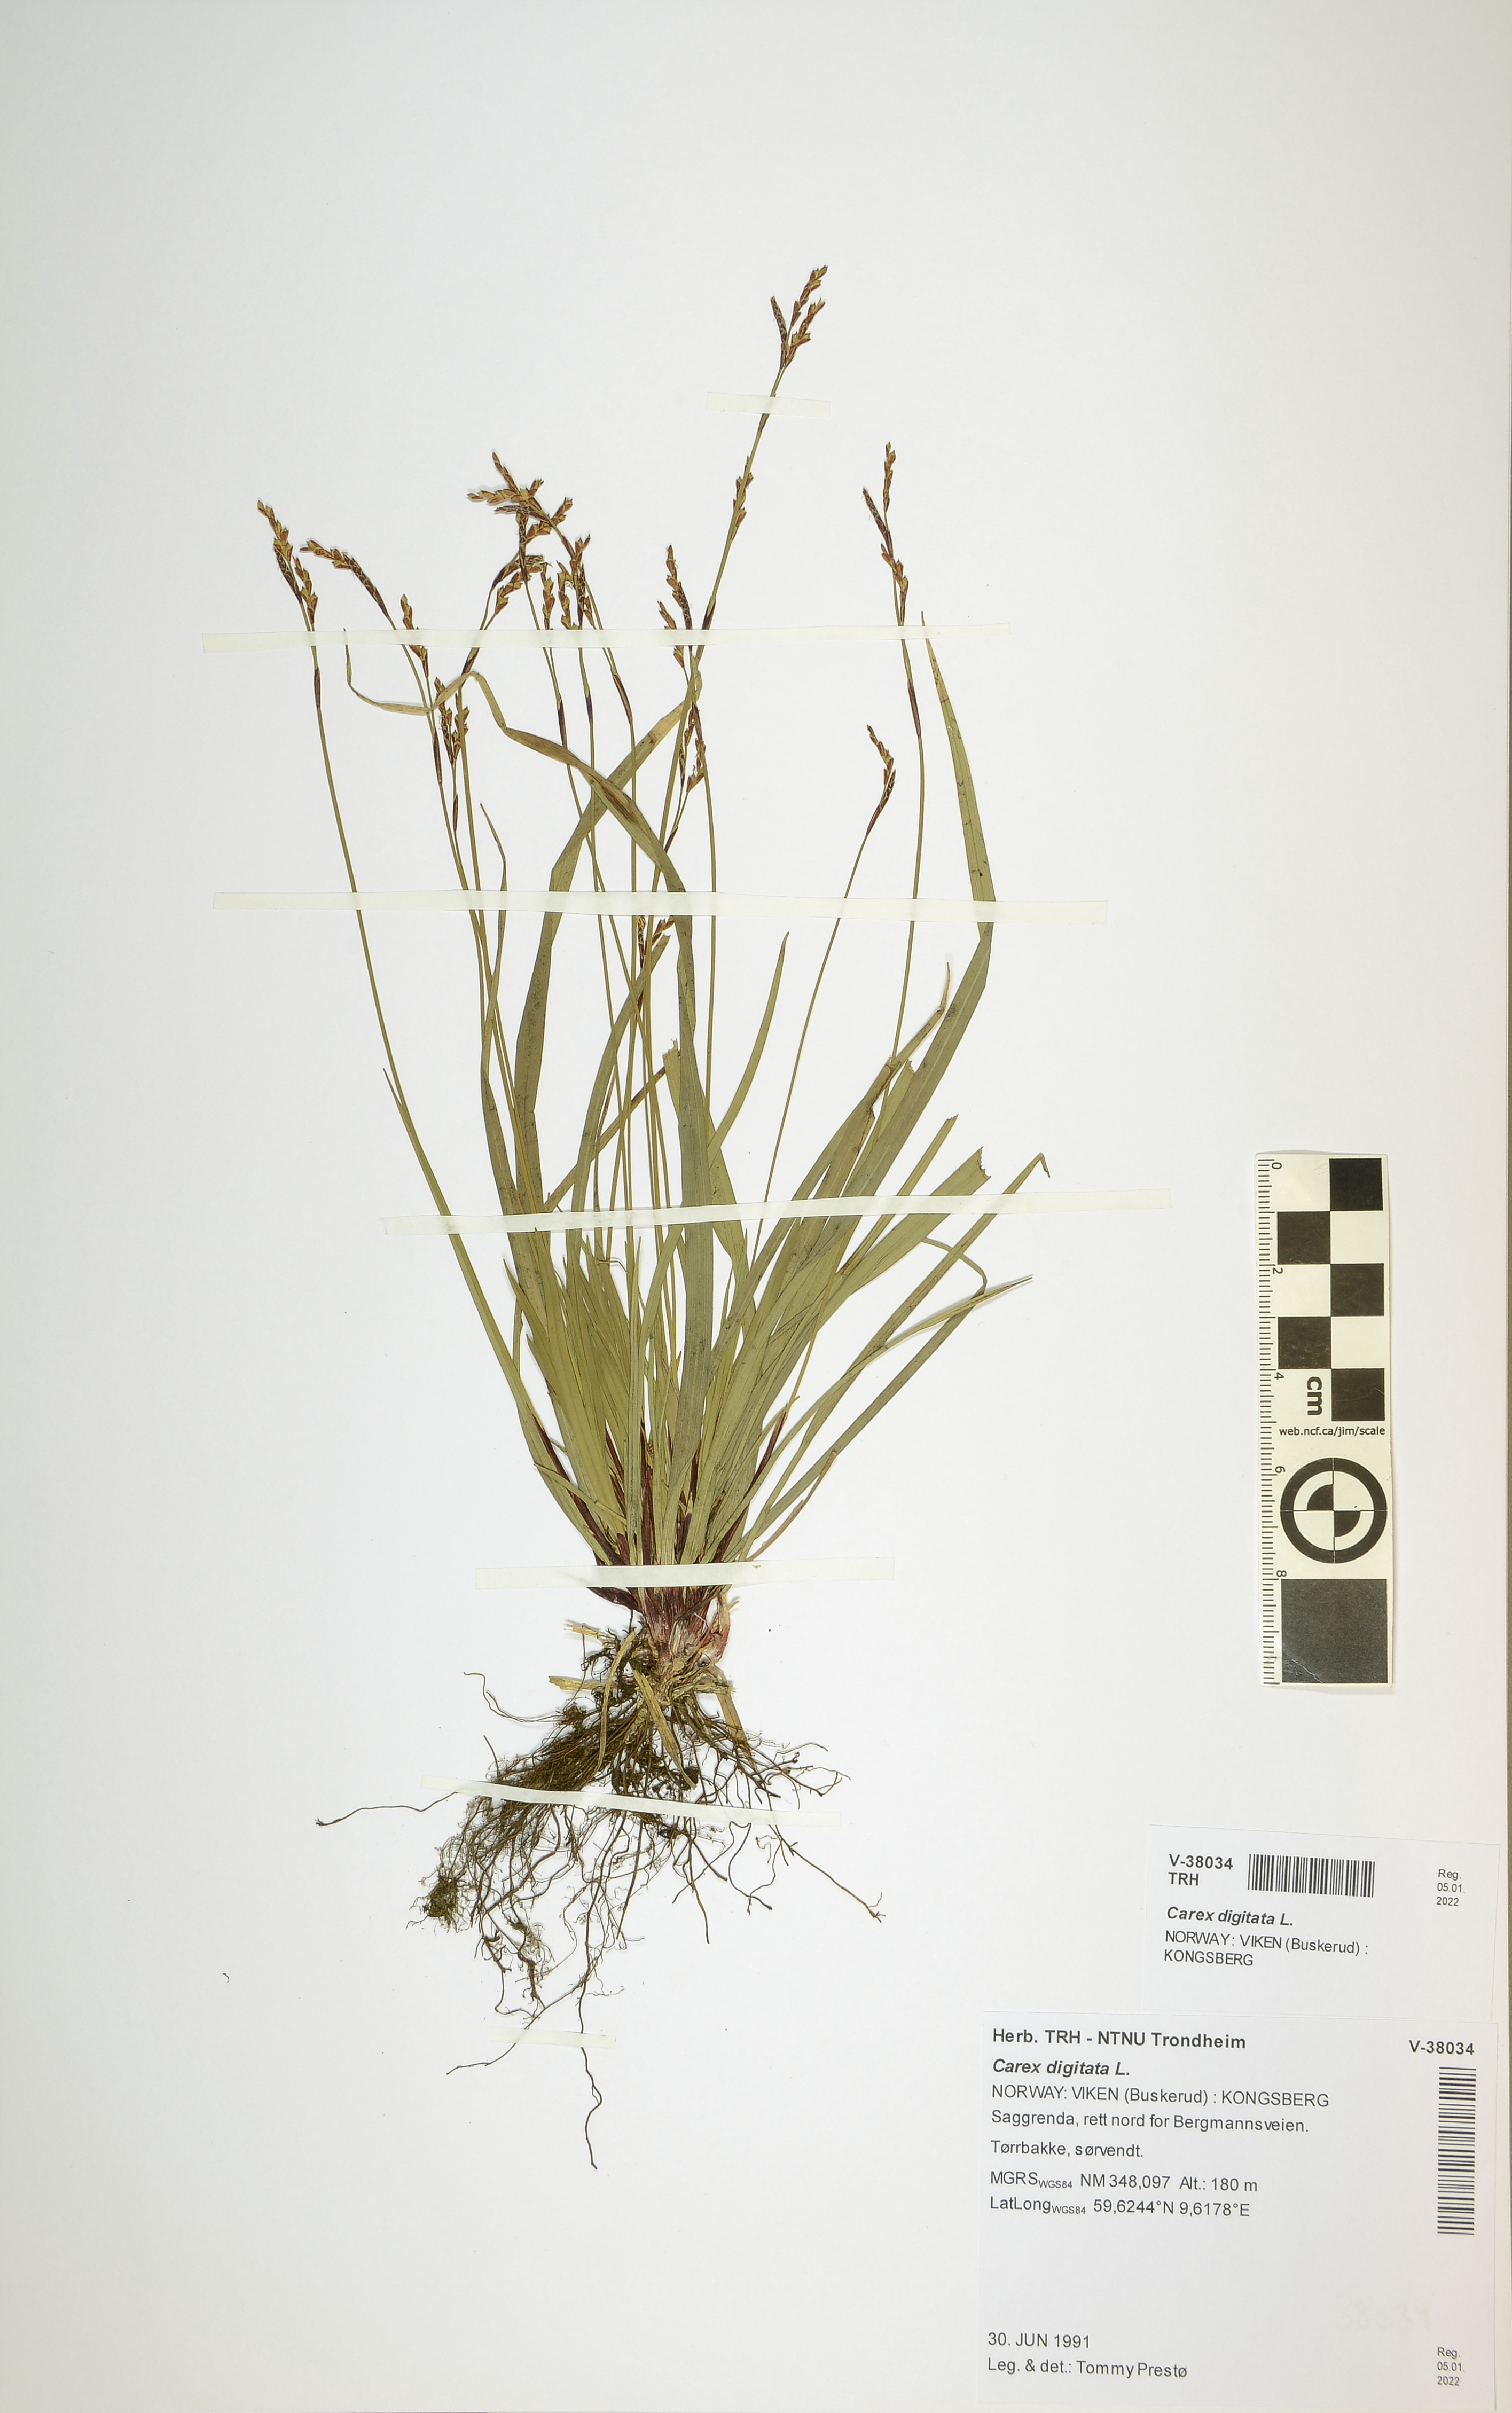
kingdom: Plantae
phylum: Tracheophyta
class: Liliopsida
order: Poales
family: Cyperaceae
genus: Carex
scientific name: Carex digitata
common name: Fingered sedge
